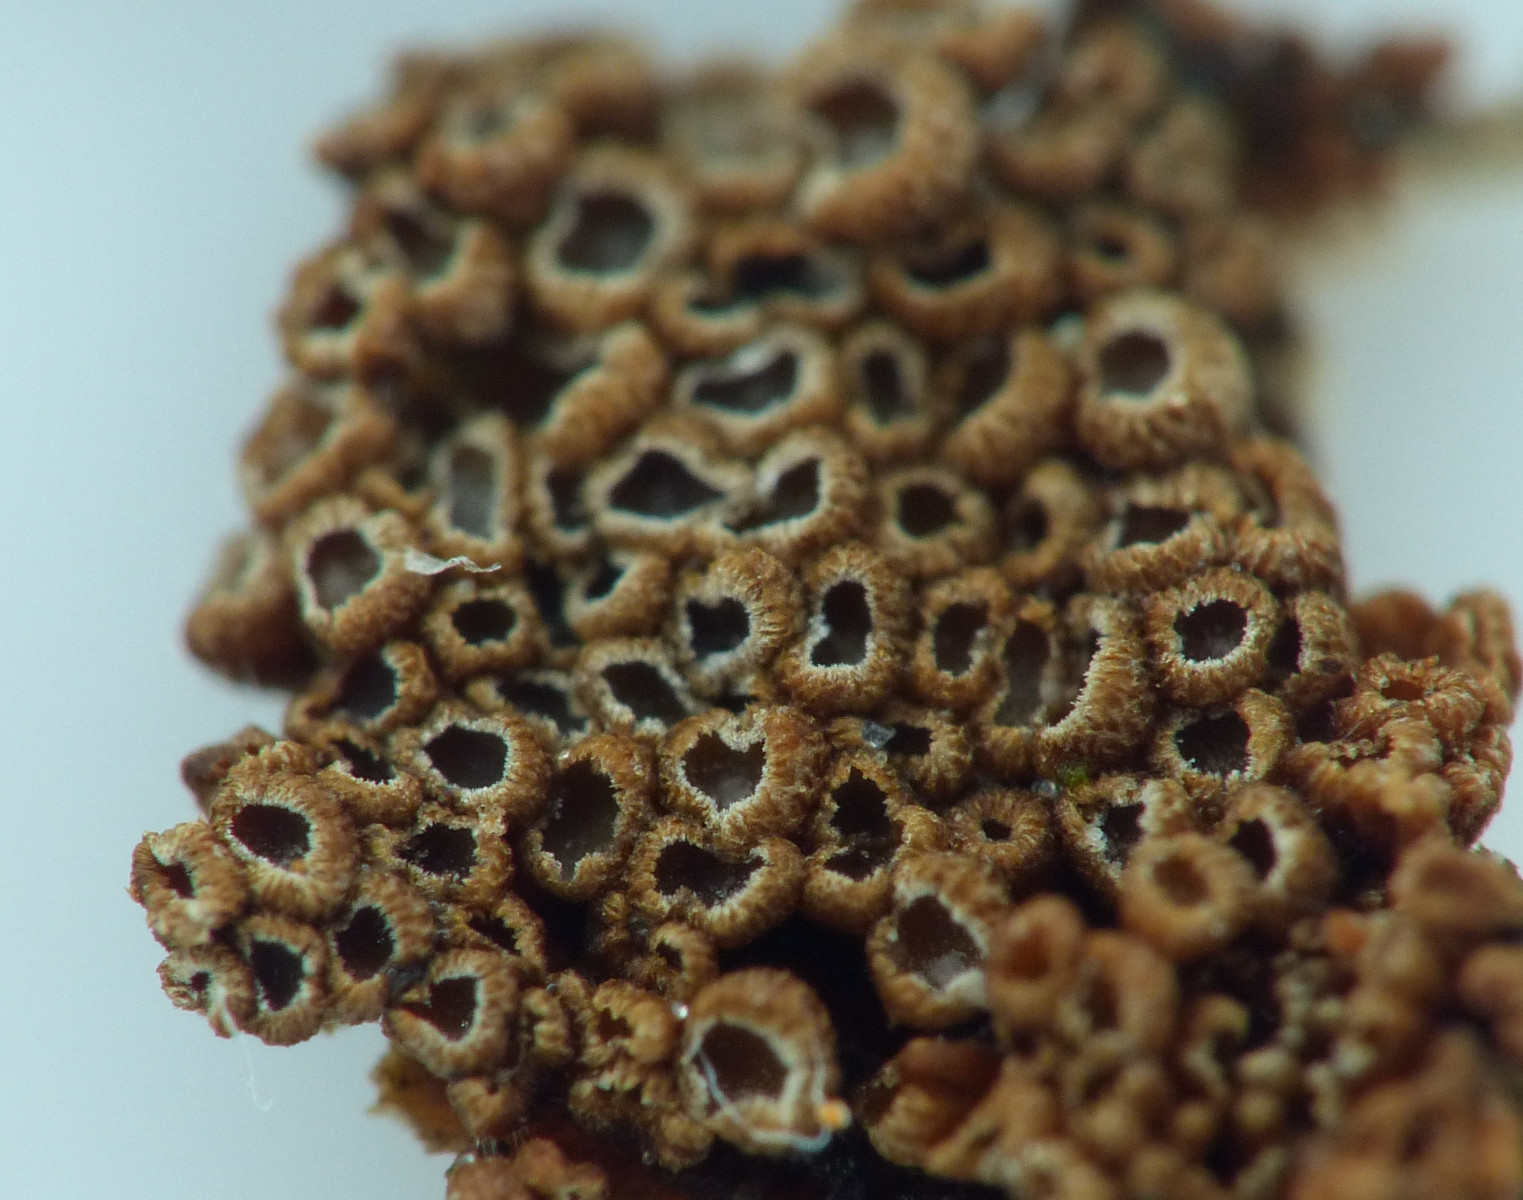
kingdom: Fungi
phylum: Basidiomycota
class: Agaricomycetes
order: Agaricales
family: Niaceae
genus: Merismodes
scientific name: Merismodes anomala
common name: almindelig læderskål
